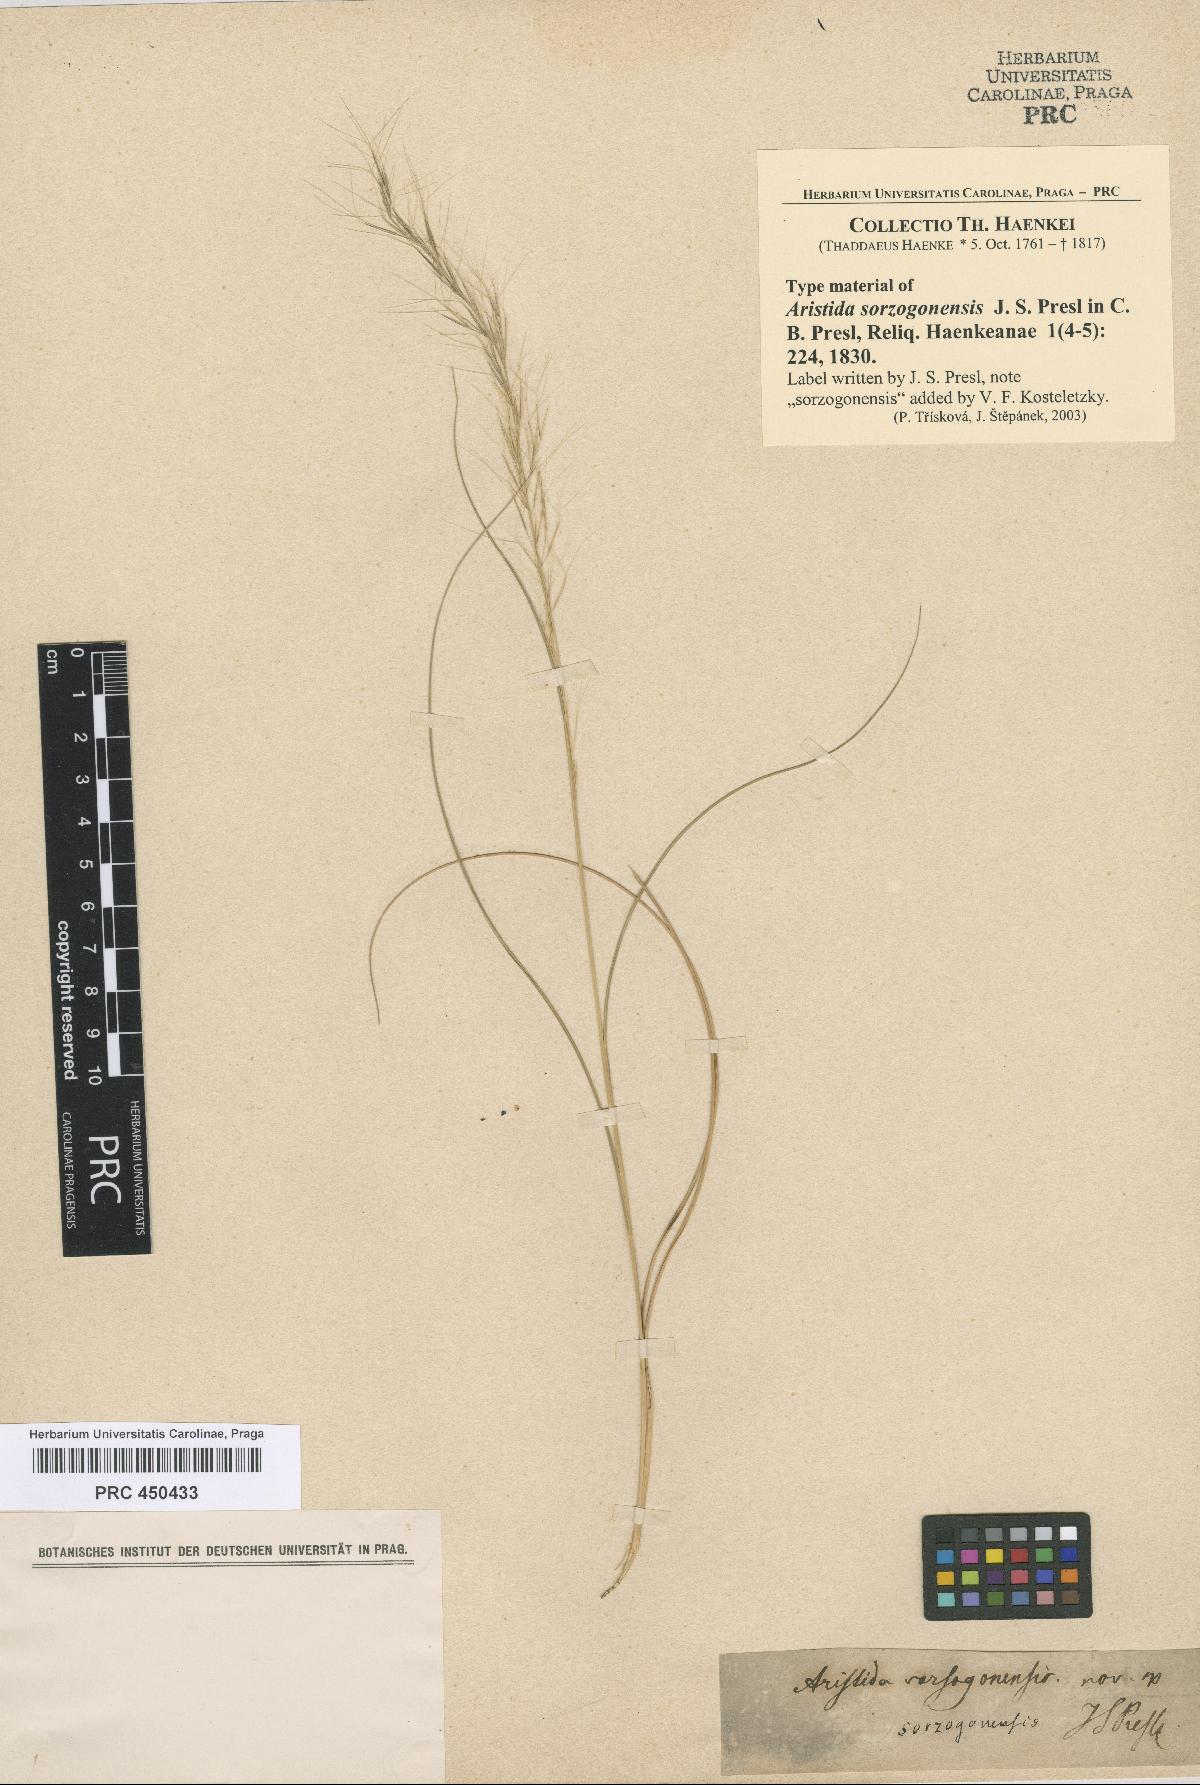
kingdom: Plantae
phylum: Tracheophyta
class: Liliopsida
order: Poales
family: Poaceae
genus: Aristida
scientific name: Aristida gibbosa
